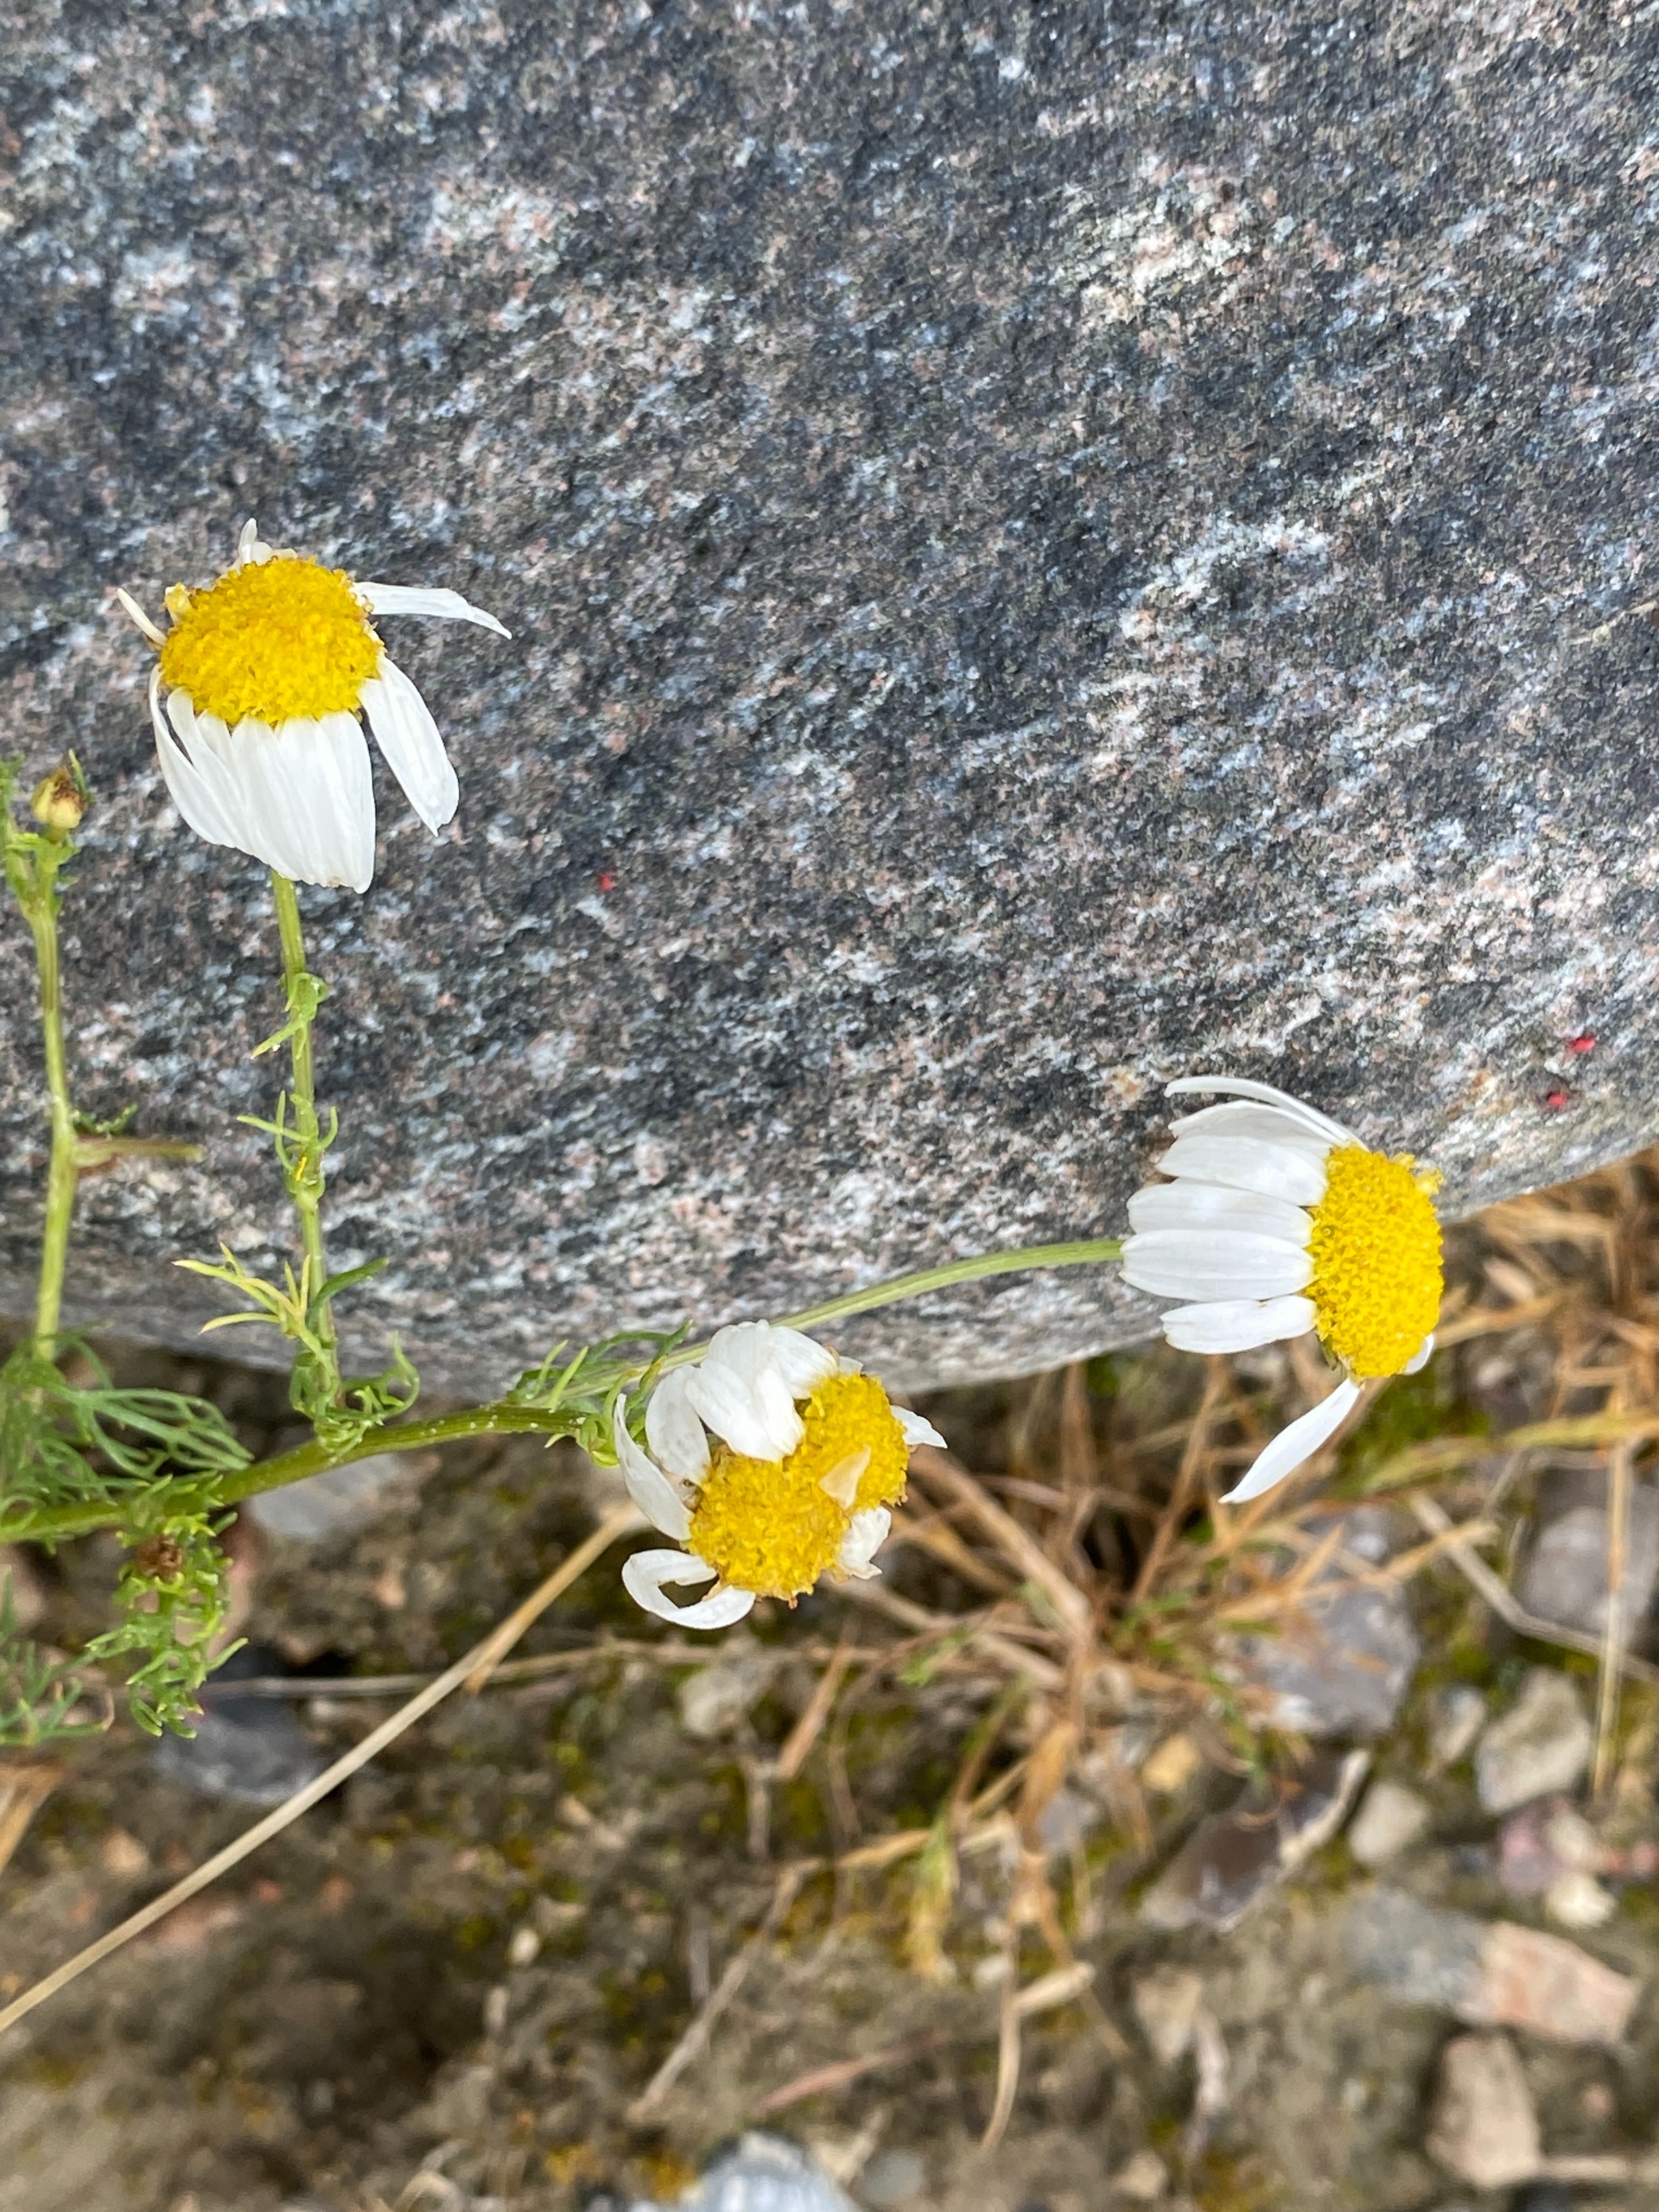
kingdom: Plantae
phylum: Tracheophyta
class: Magnoliopsida
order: Asterales
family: Asteraceae
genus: Tripleurospermum
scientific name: Tripleurospermum inodorum
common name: Lugtløs kamille
